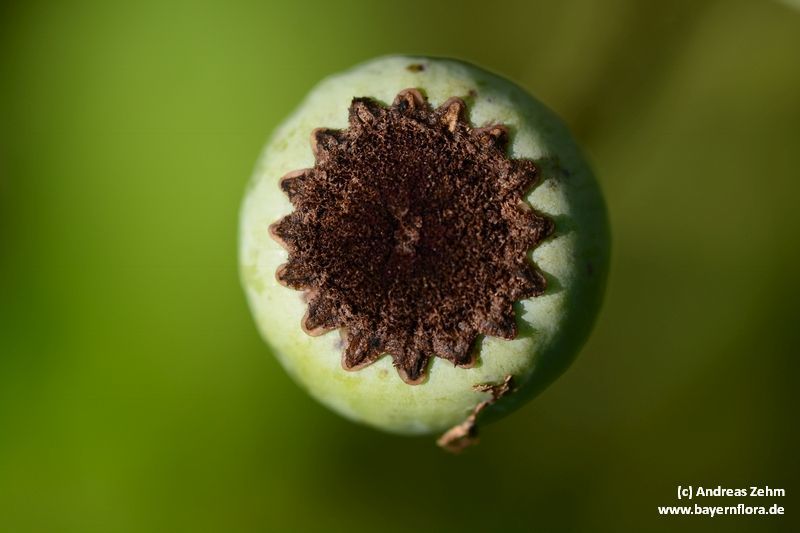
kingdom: Plantae
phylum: Tracheophyta
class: Magnoliopsida
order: Ranunculales
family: Papaveraceae
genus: Papaver
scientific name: Papaver orientale
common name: Oriental poppy
